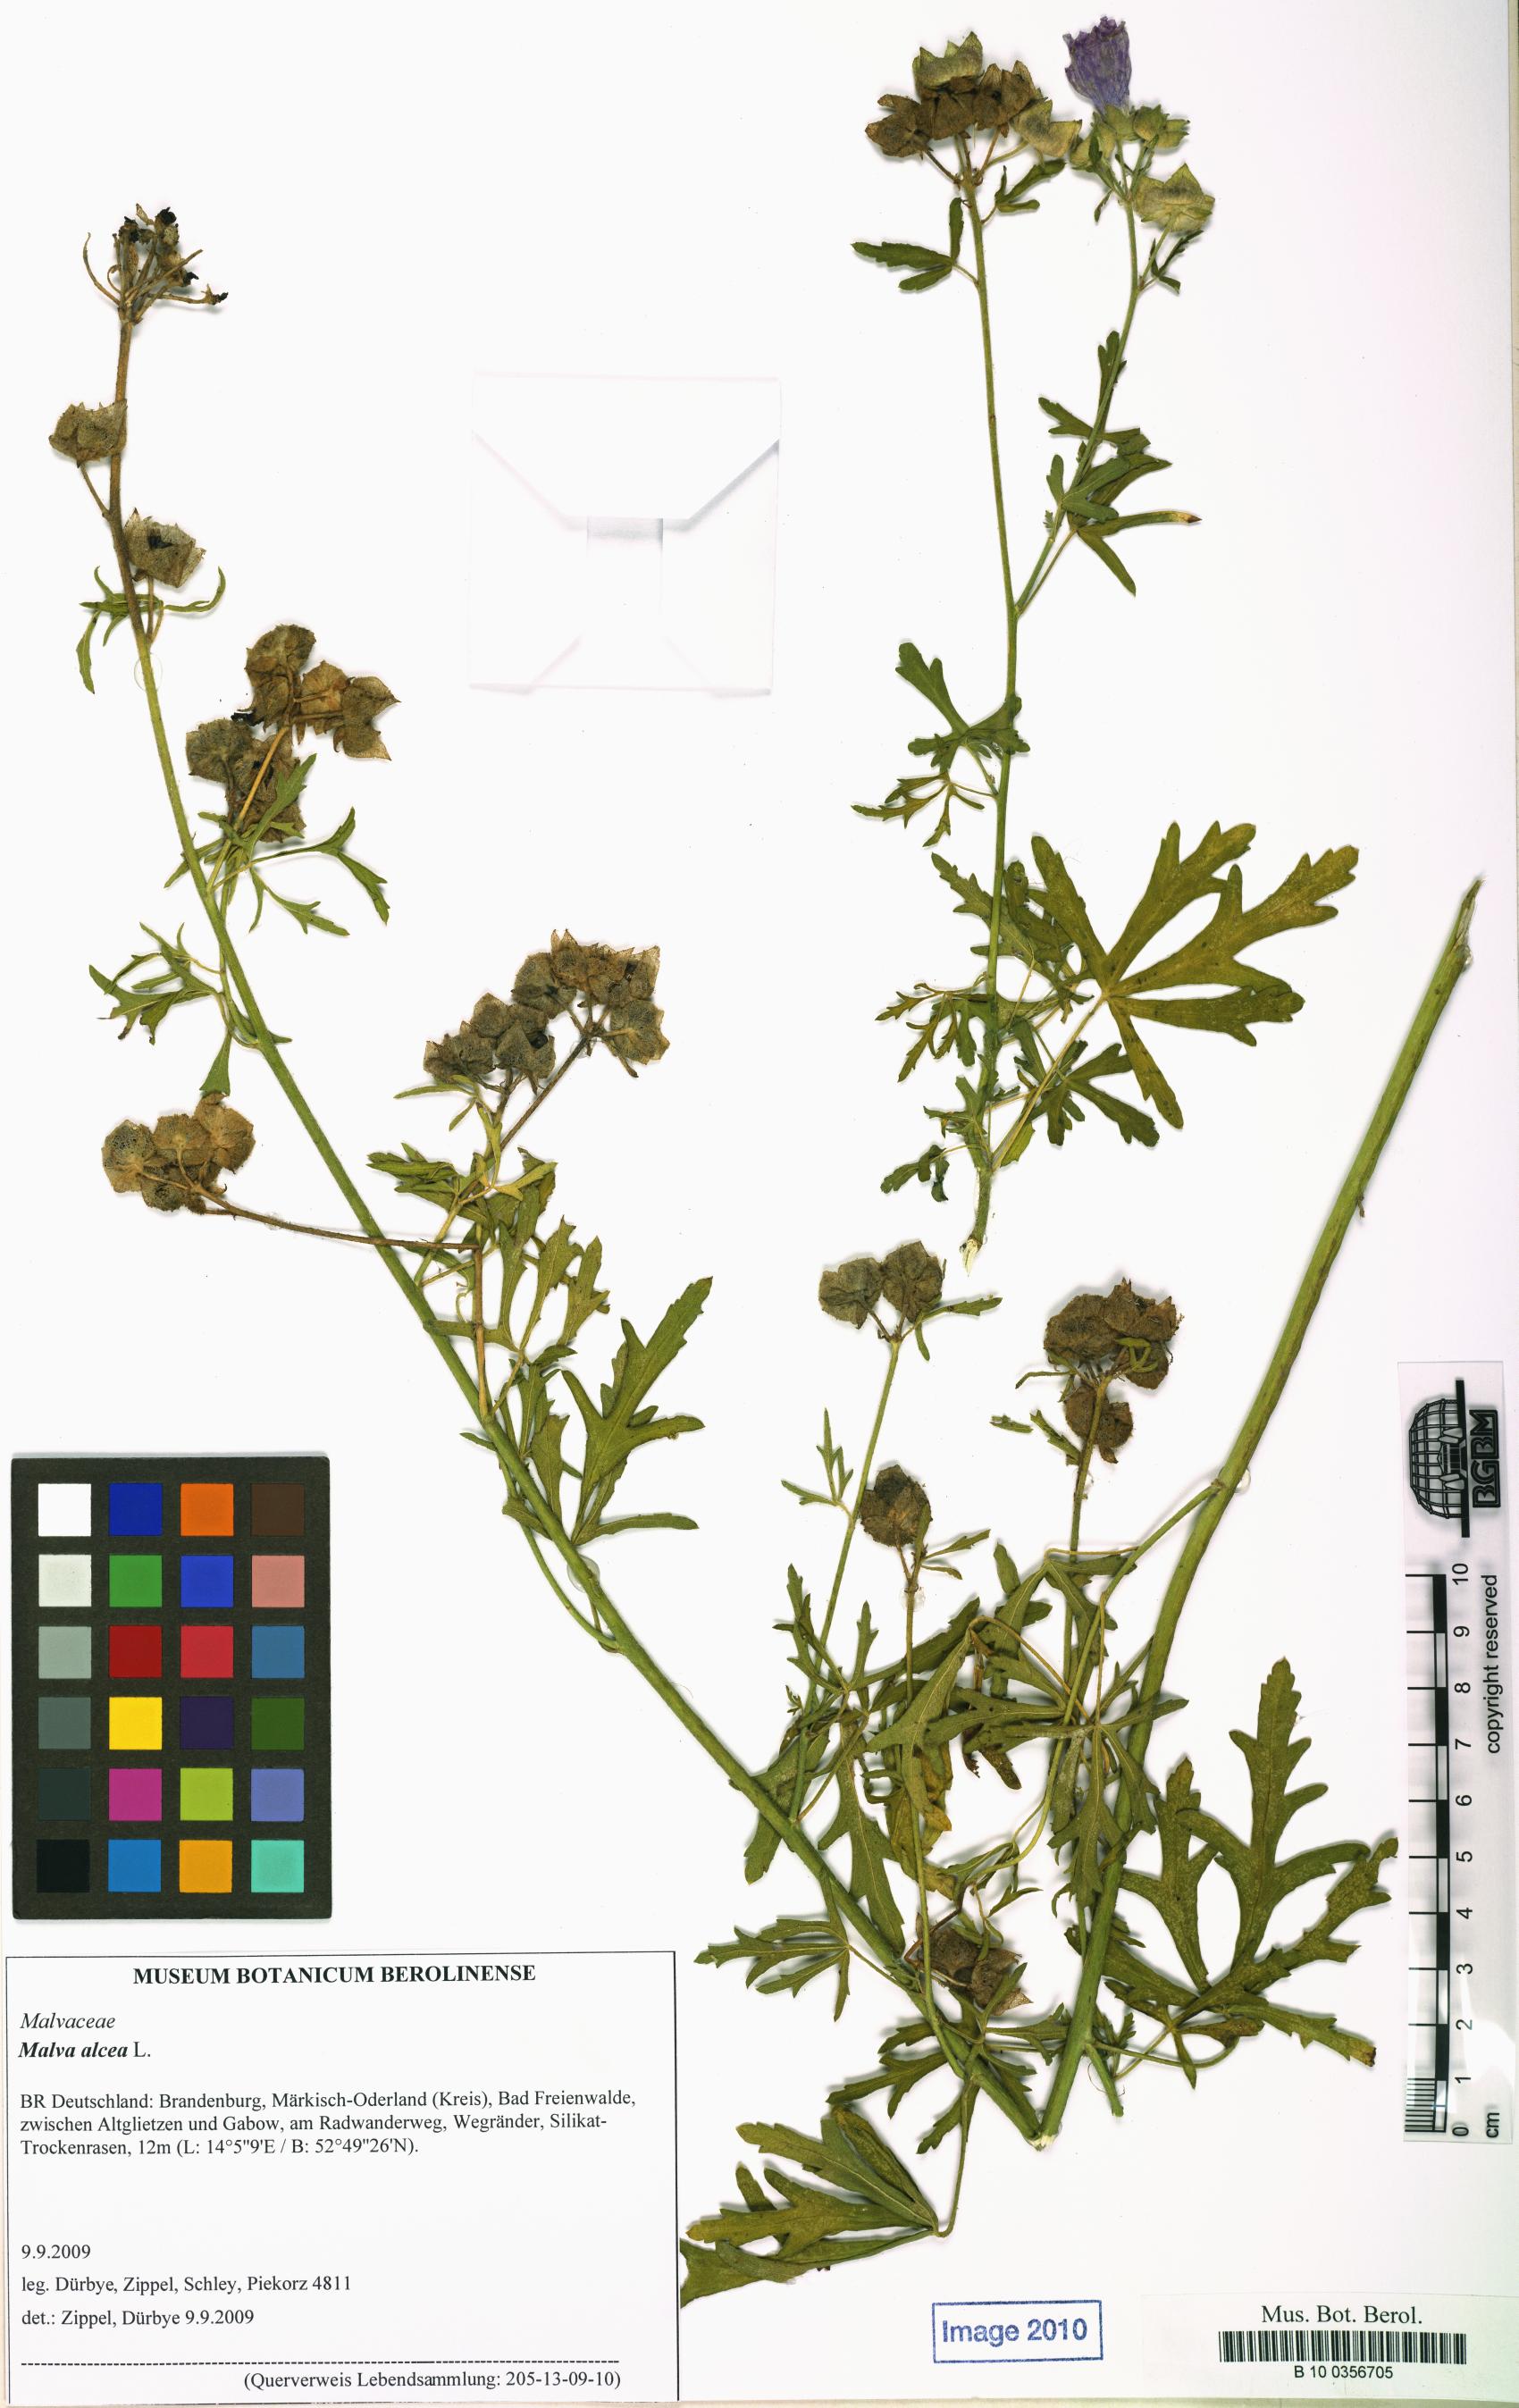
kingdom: Plantae
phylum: Tracheophyta
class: Magnoliopsida
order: Malvales
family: Malvaceae
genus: Malva
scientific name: Malva alcea
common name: Greater musk-mallow
